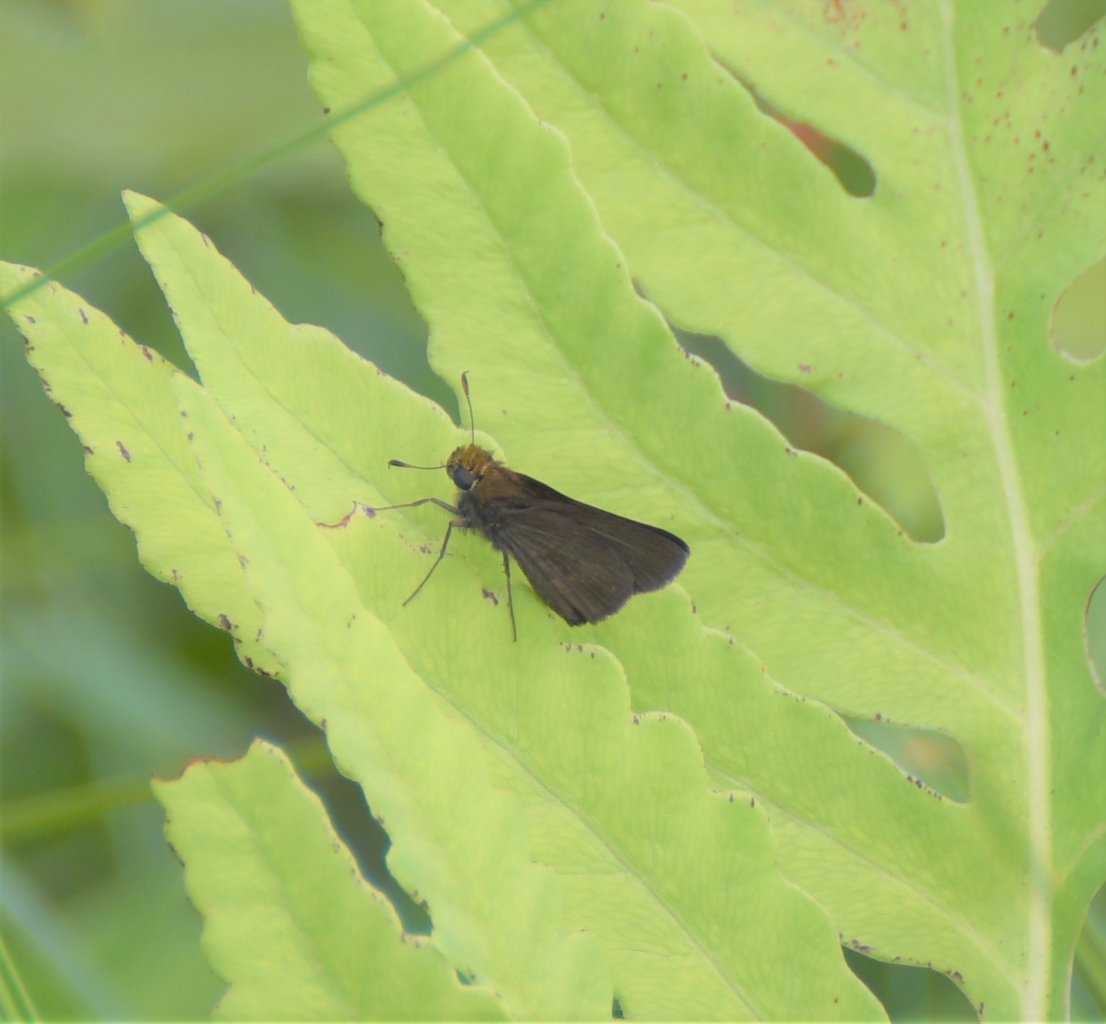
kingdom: Animalia
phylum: Arthropoda
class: Insecta
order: Lepidoptera
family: Hesperiidae
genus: Euphyes
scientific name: Euphyes vestris
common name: Dun Skipper
